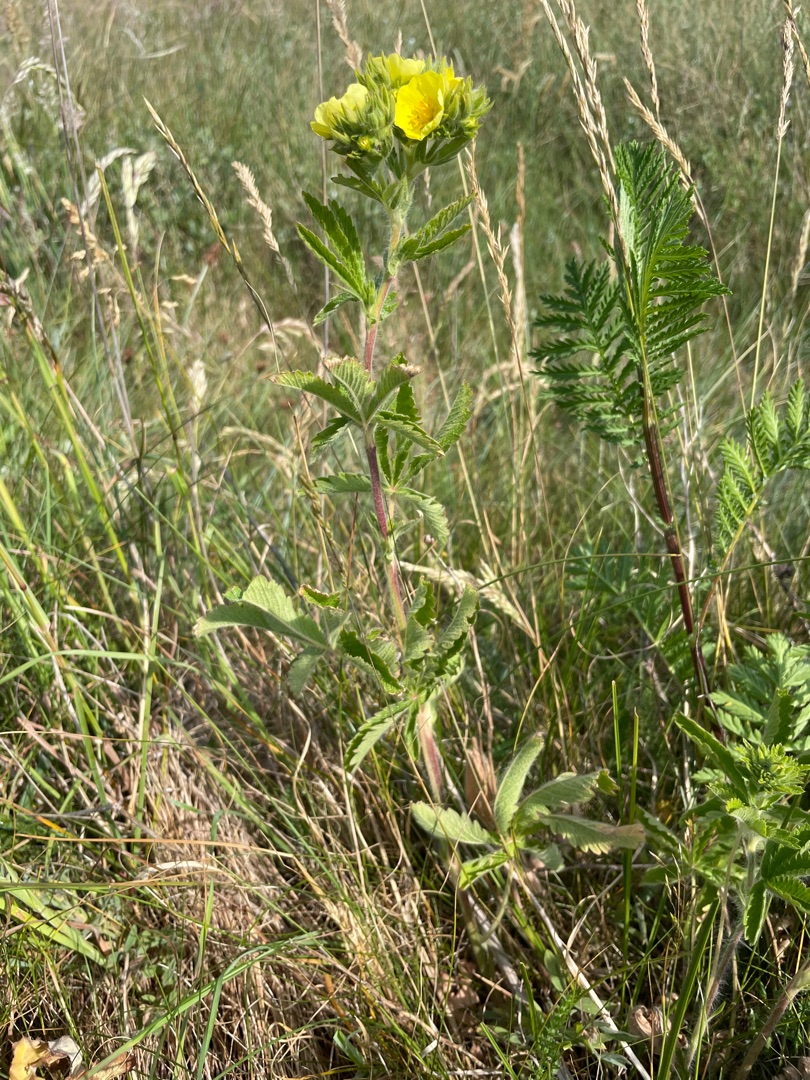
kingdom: Plantae
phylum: Tracheophyta
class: Magnoliopsida
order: Rosales
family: Rosaceae
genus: Potentilla
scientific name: Potentilla recta
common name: Rank potentil
